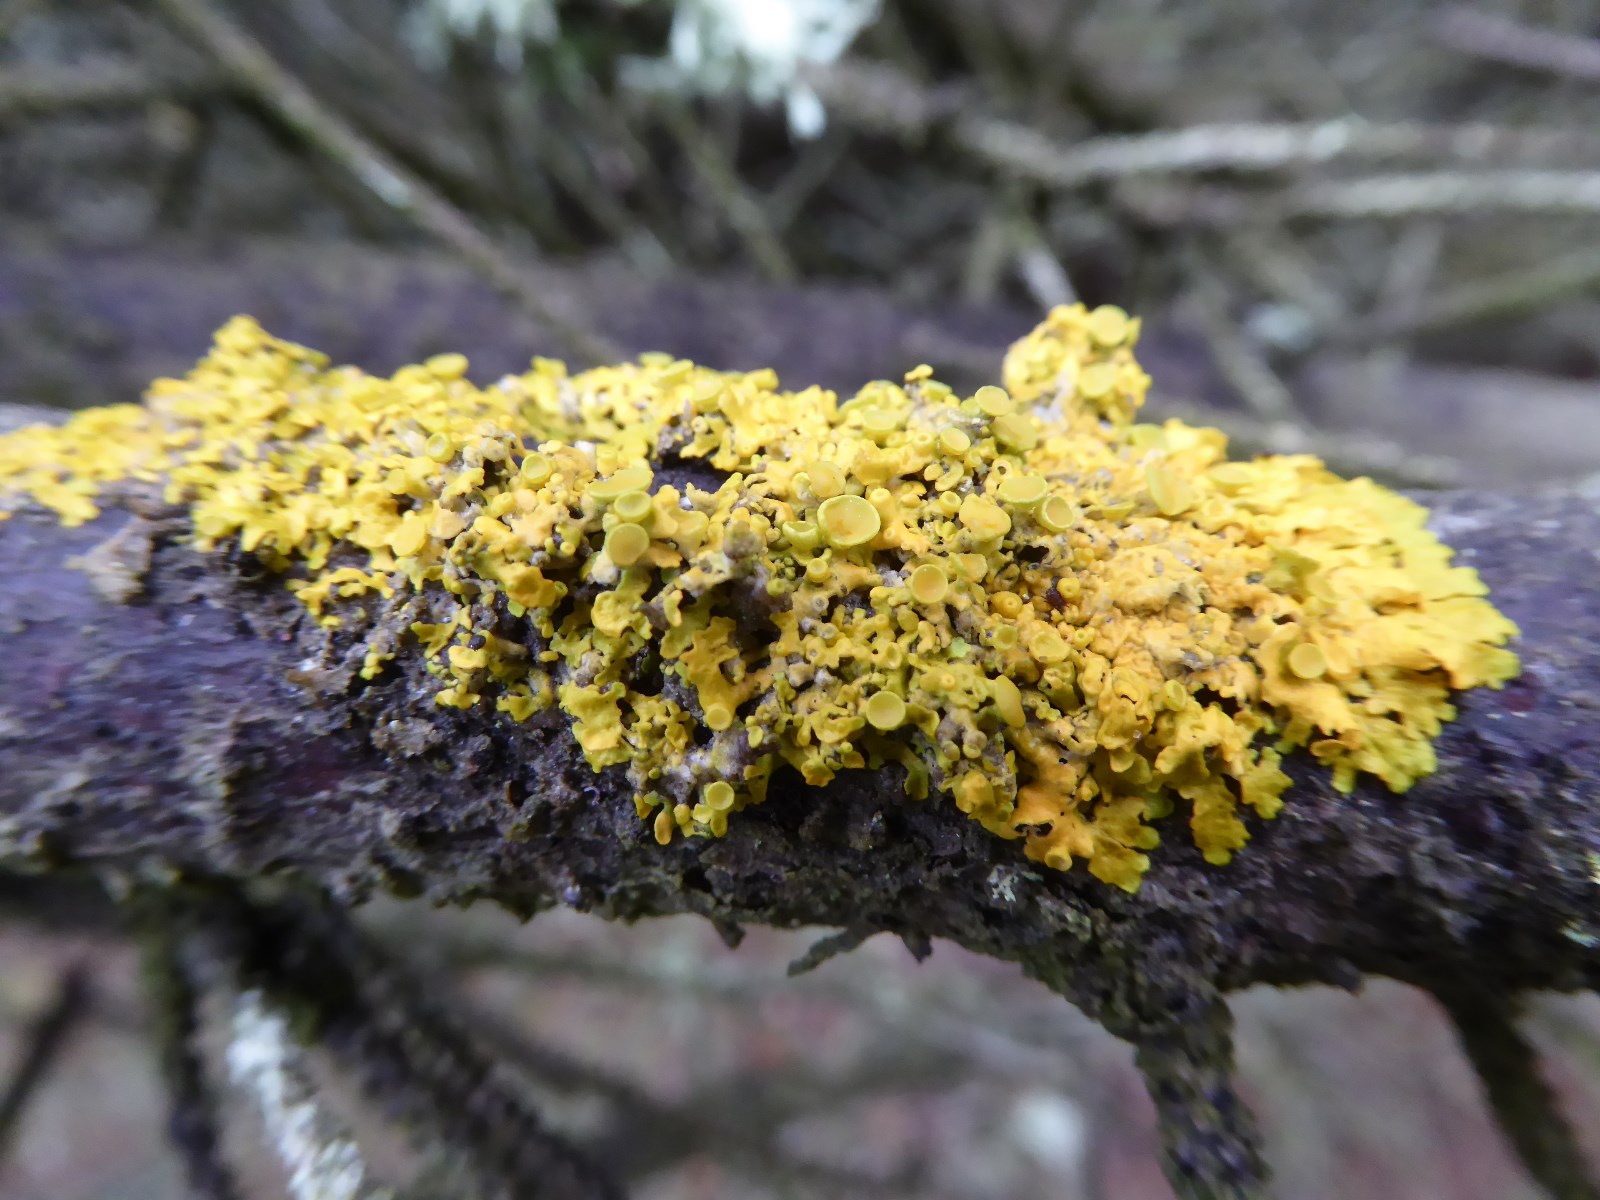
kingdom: Fungi
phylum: Ascomycota
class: Lecanoromycetes
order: Teloschistales
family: Teloschistaceae
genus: Xanthoria
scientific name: Xanthoria parietina
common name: almindelig væggelav
